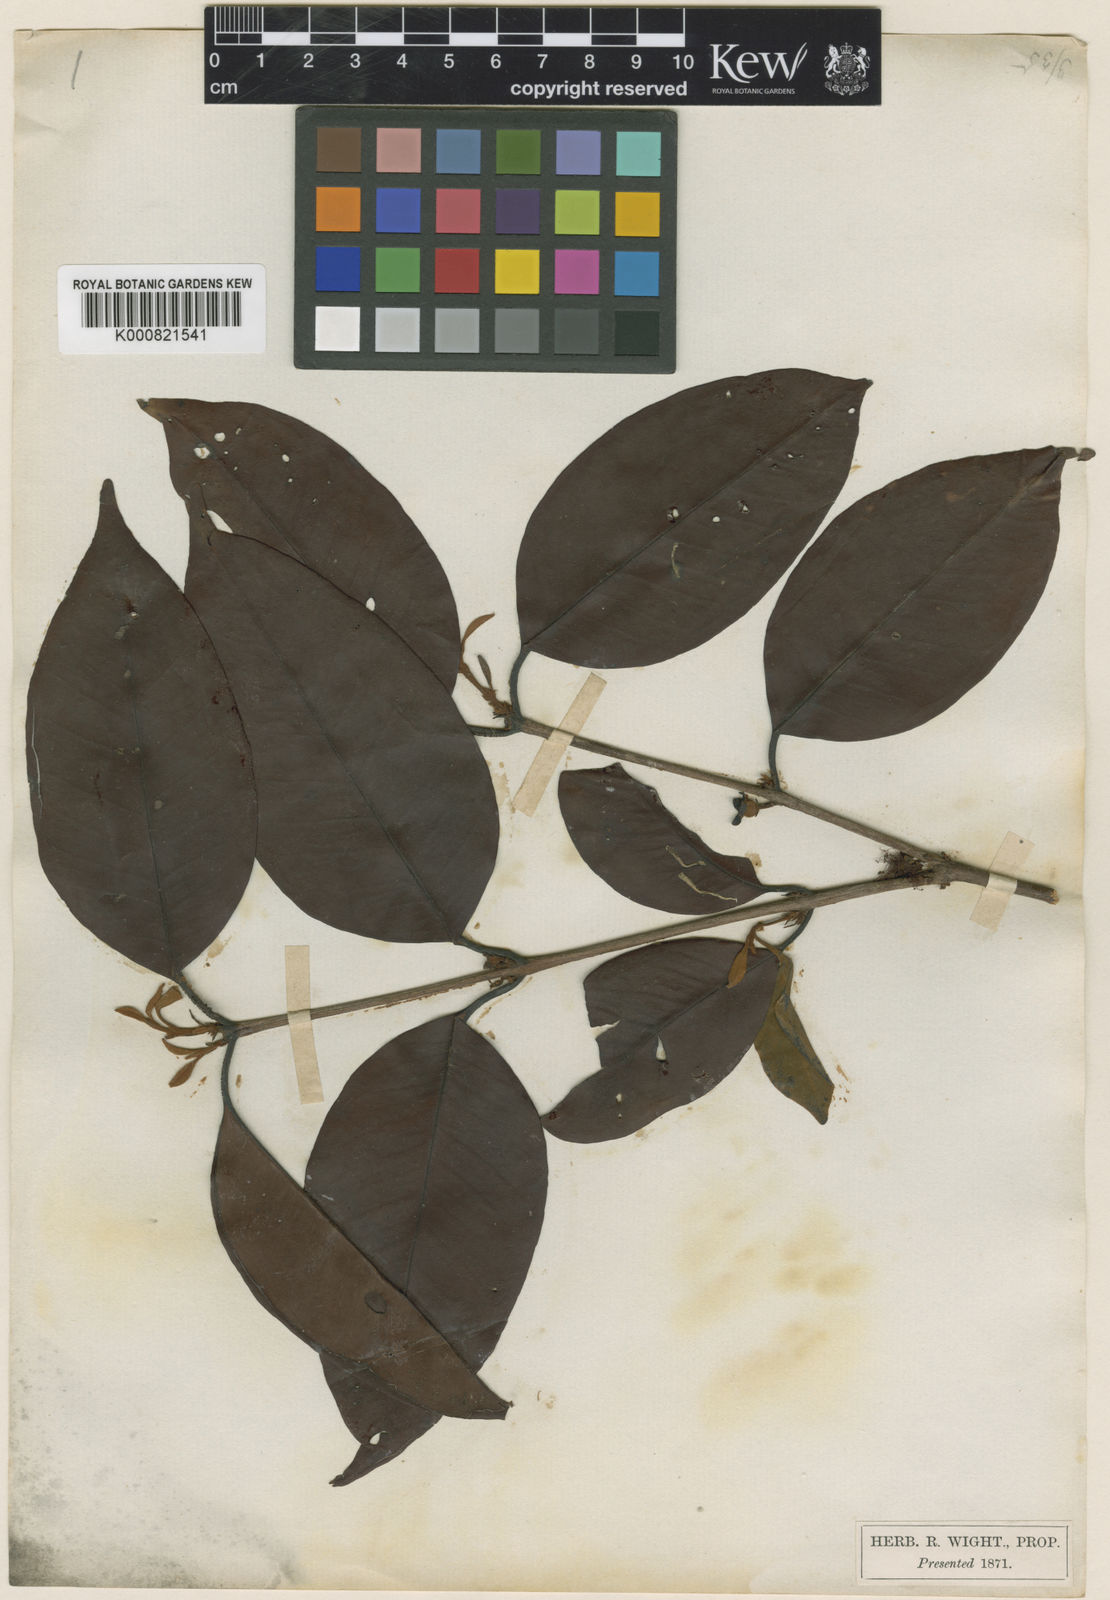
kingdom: Plantae
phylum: Tracheophyta
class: Magnoliopsida
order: Myrtales
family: Myrtaceae
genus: Eugenia
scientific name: Eugenia roxburghii
